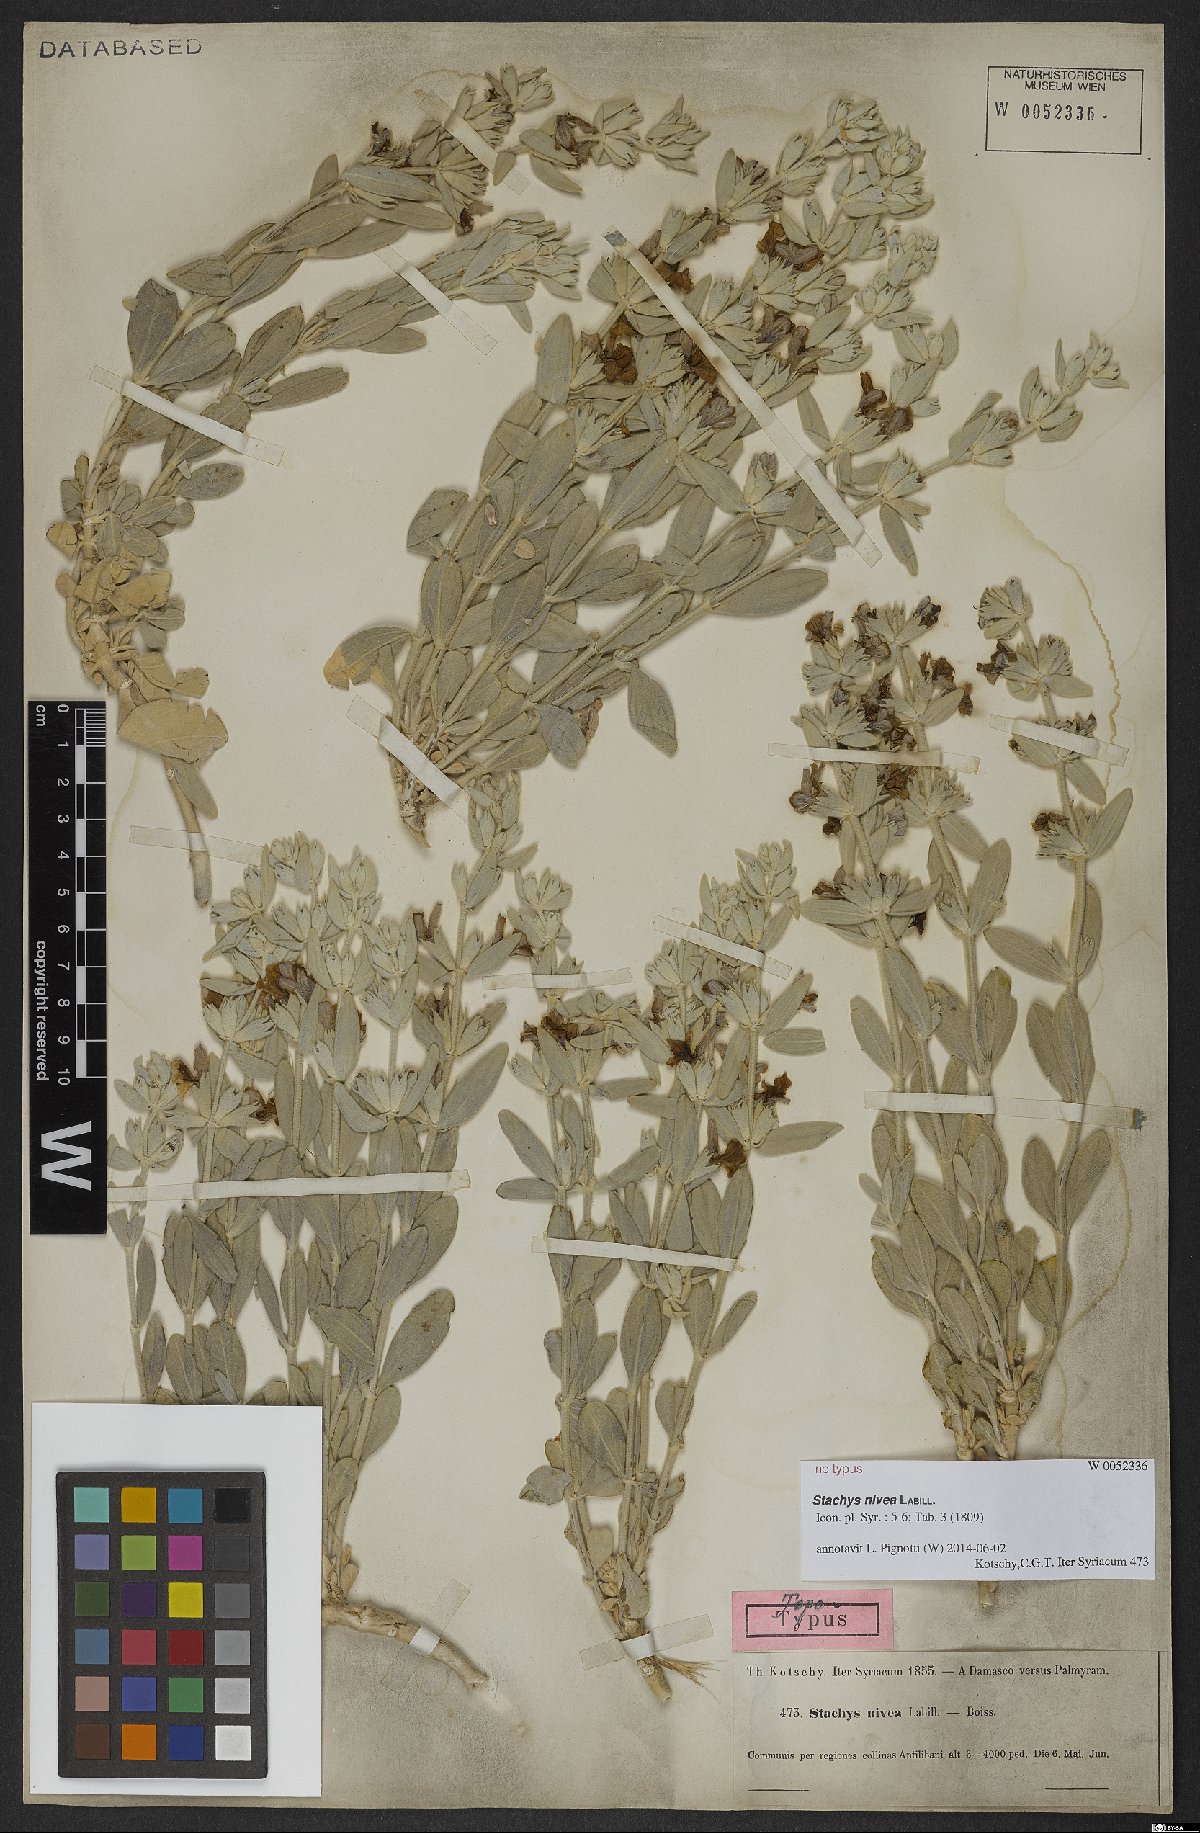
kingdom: Plantae
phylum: Tracheophyta
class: Magnoliopsida
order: Lamiales
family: Lamiaceae
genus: Stachys
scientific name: Stachys nivea
